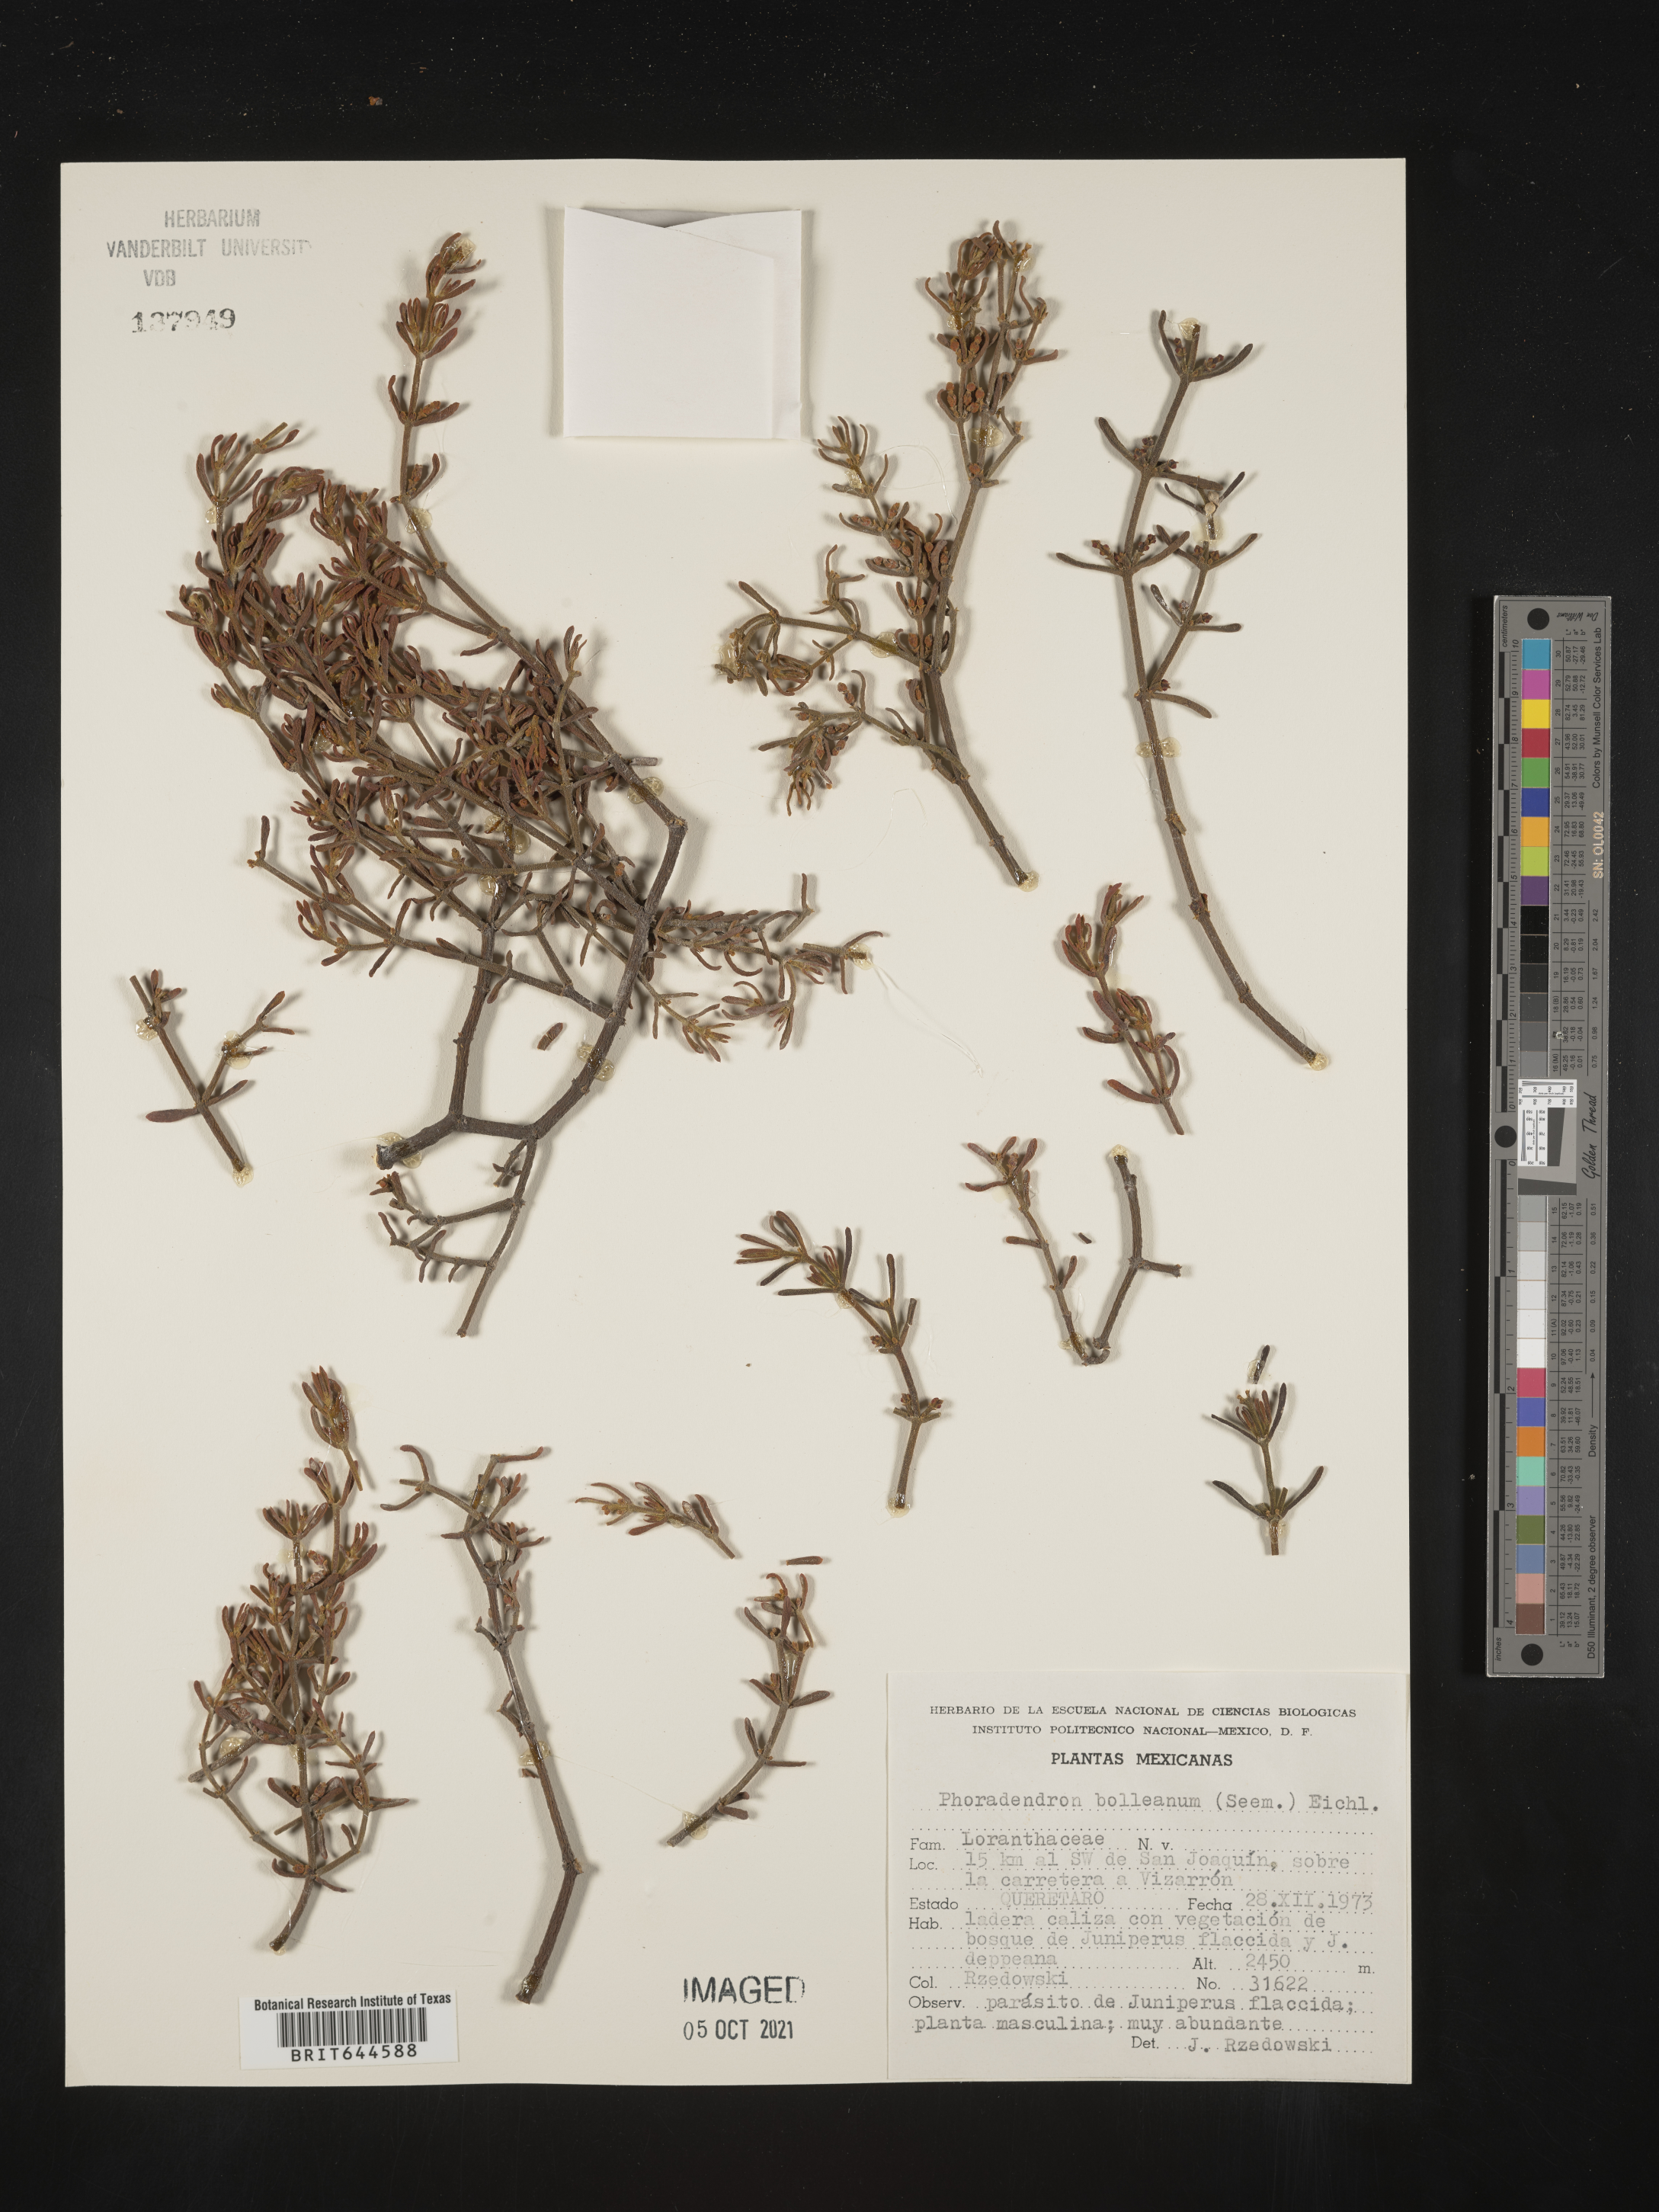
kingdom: Plantae
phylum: Tracheophyta
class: Magnoliopsida
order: Santalales
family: Viscaceae
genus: Phoradendron
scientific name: Phoradendron
